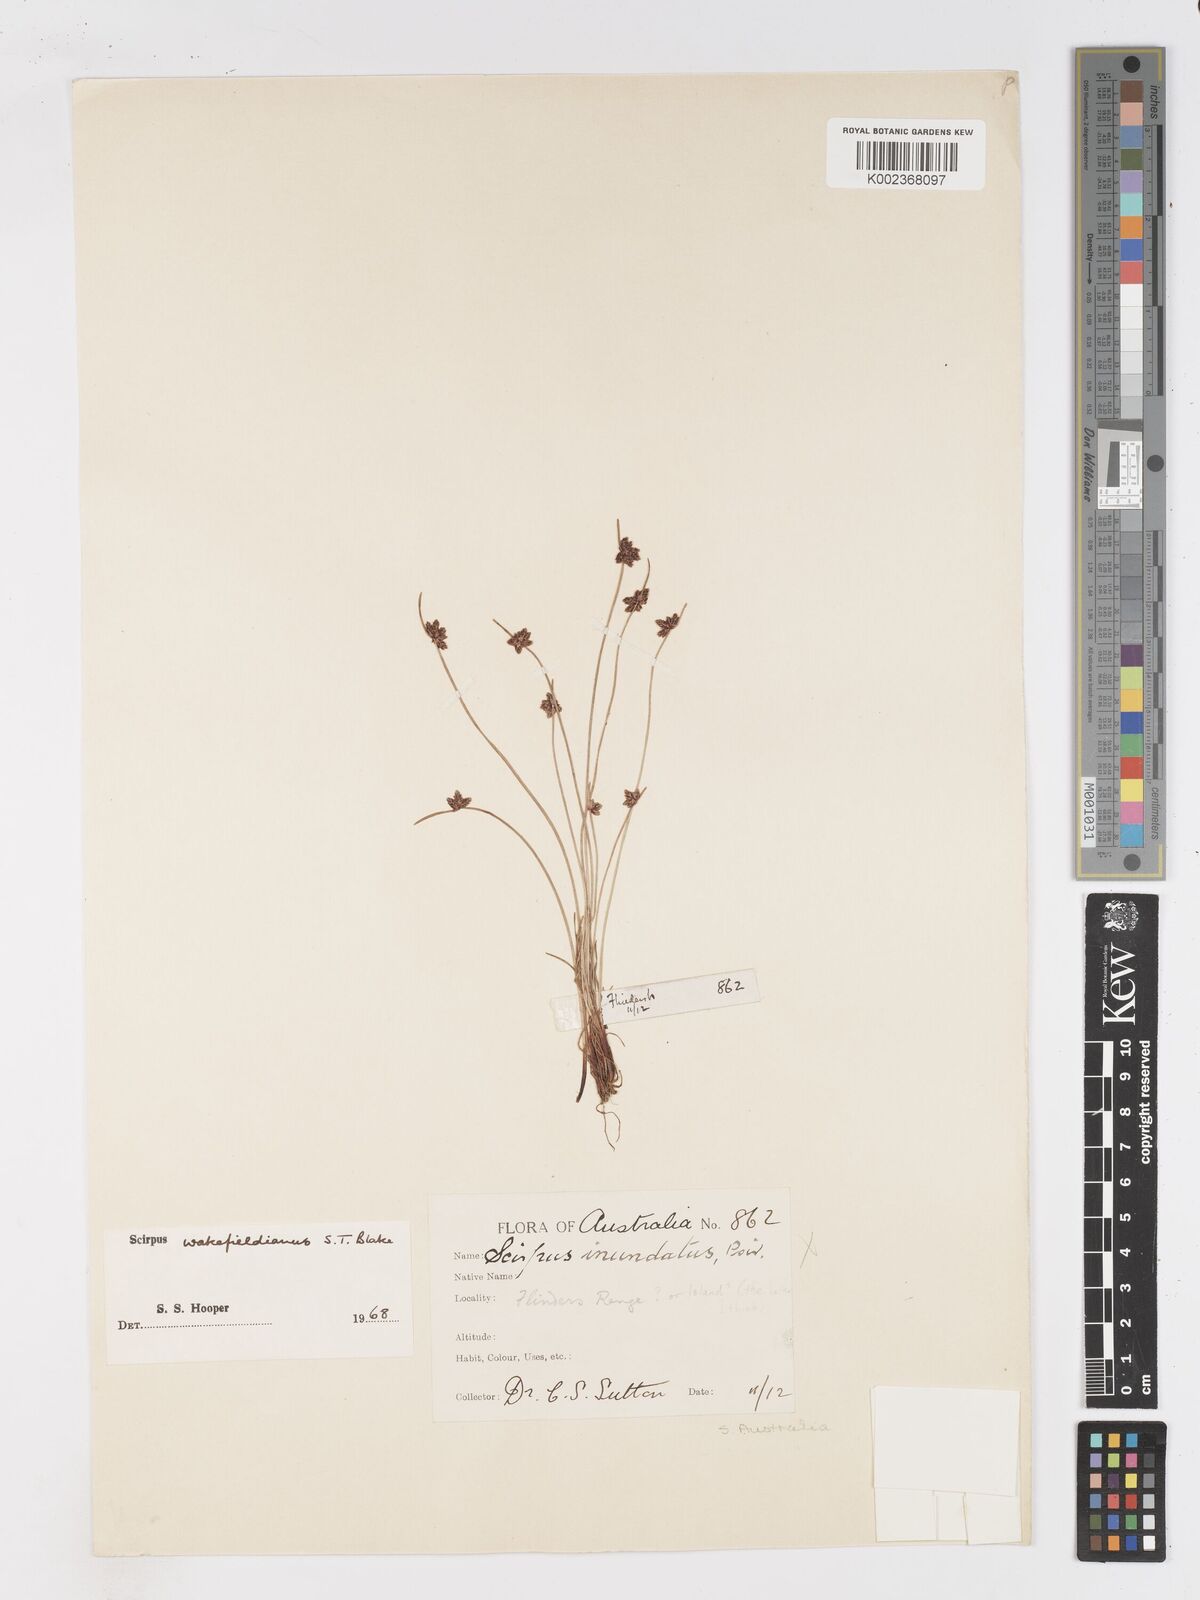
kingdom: Plantae
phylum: Tracheophyta
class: Liliopsida
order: Poales
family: Cyperaceae
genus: Isolepis
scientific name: Isolepis wakefieldiana
